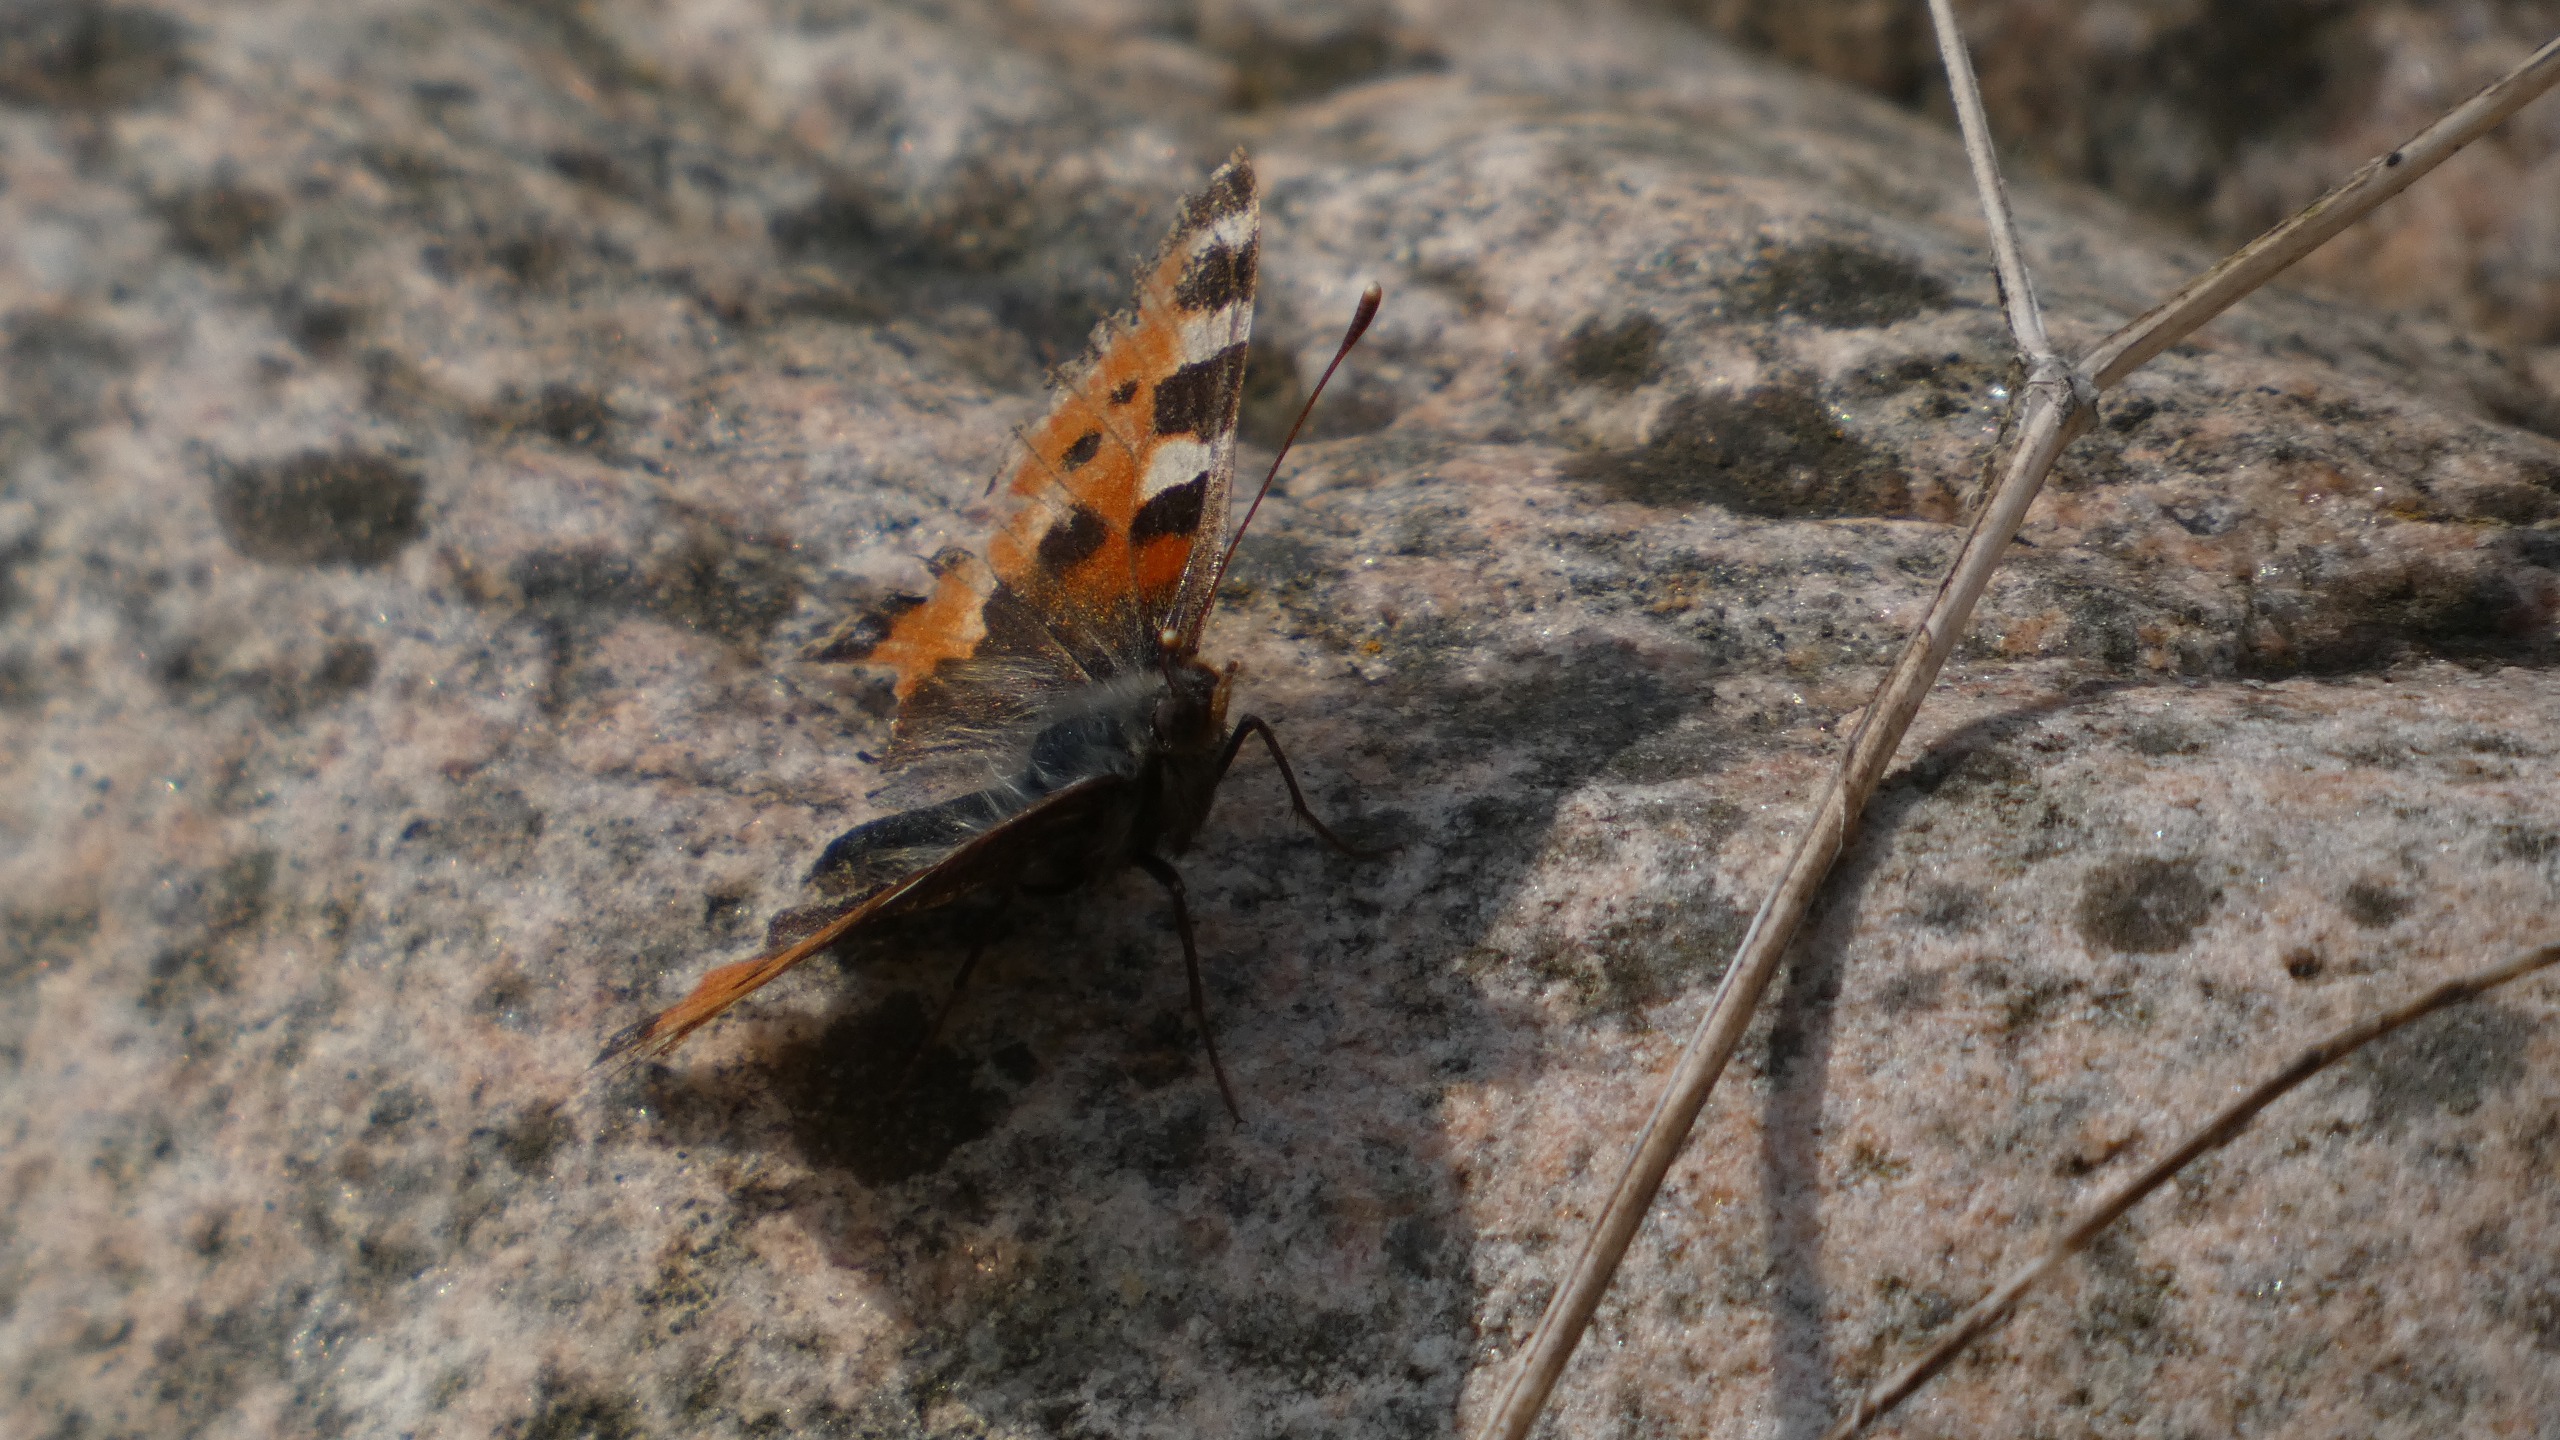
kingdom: Animalia
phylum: Arthropoda
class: Insecta
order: Lepidoptera
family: Nymphalidae
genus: Aglais
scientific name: Aglais urticae
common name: Nældens takvinge
